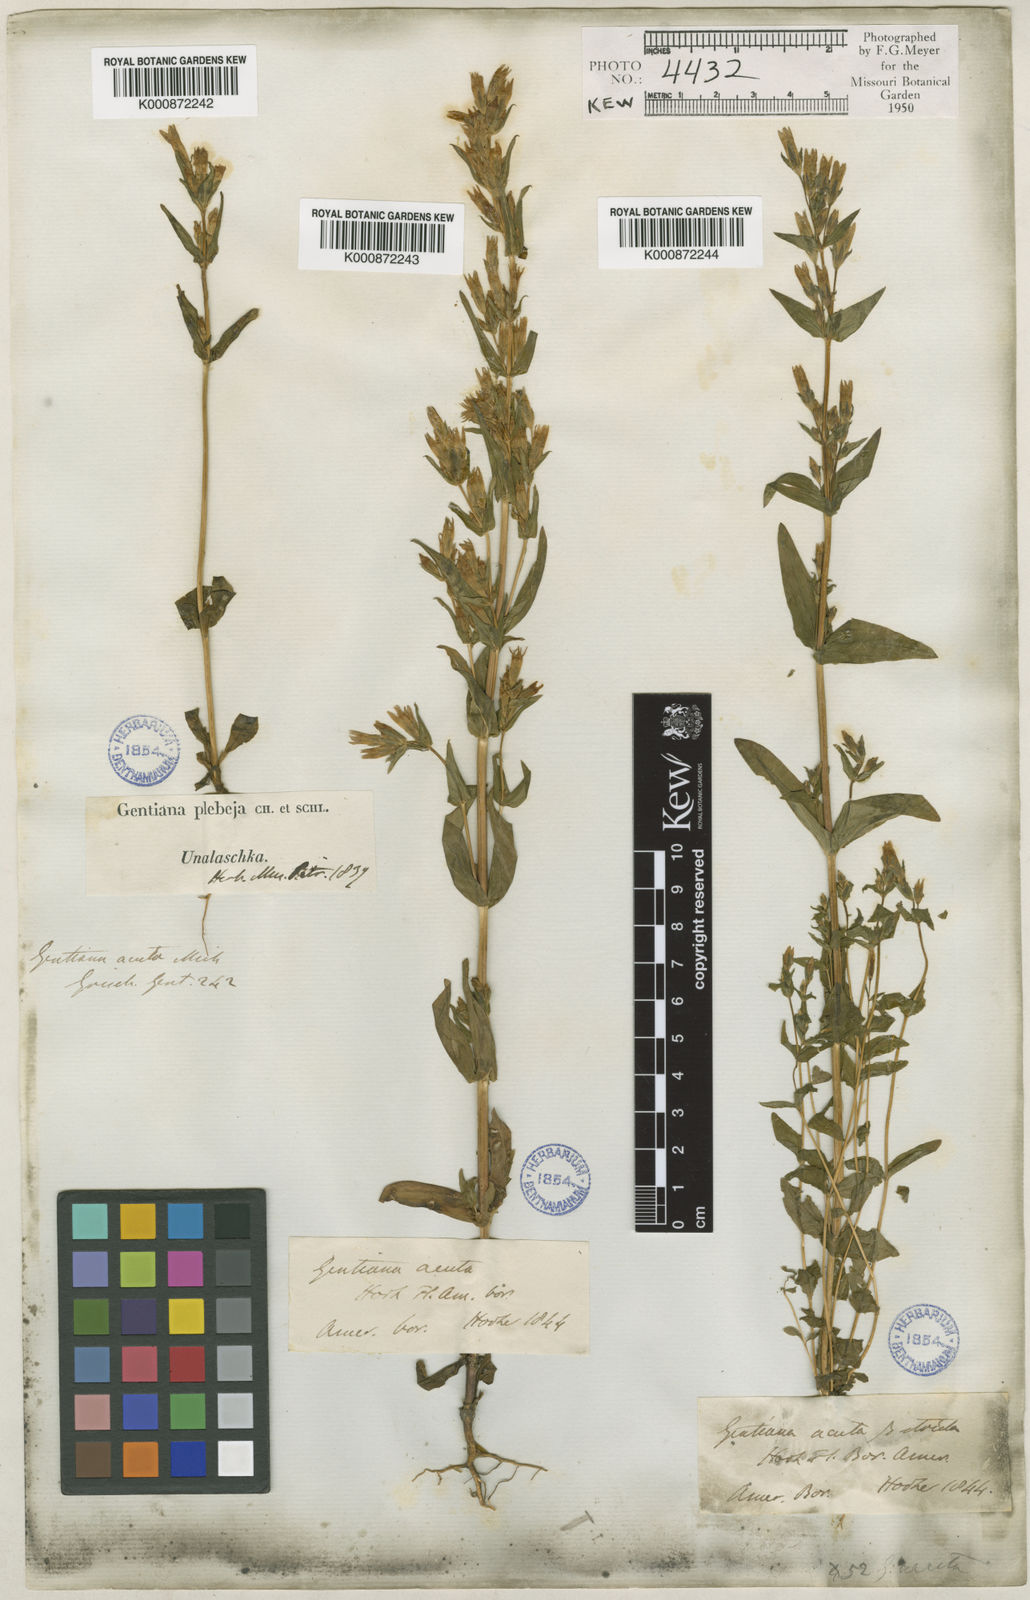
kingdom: Plantae
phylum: Tracheophyta
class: Magnoliopsida
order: Gentianales
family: Gentianaceae
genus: Gentianella
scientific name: Gentianella
